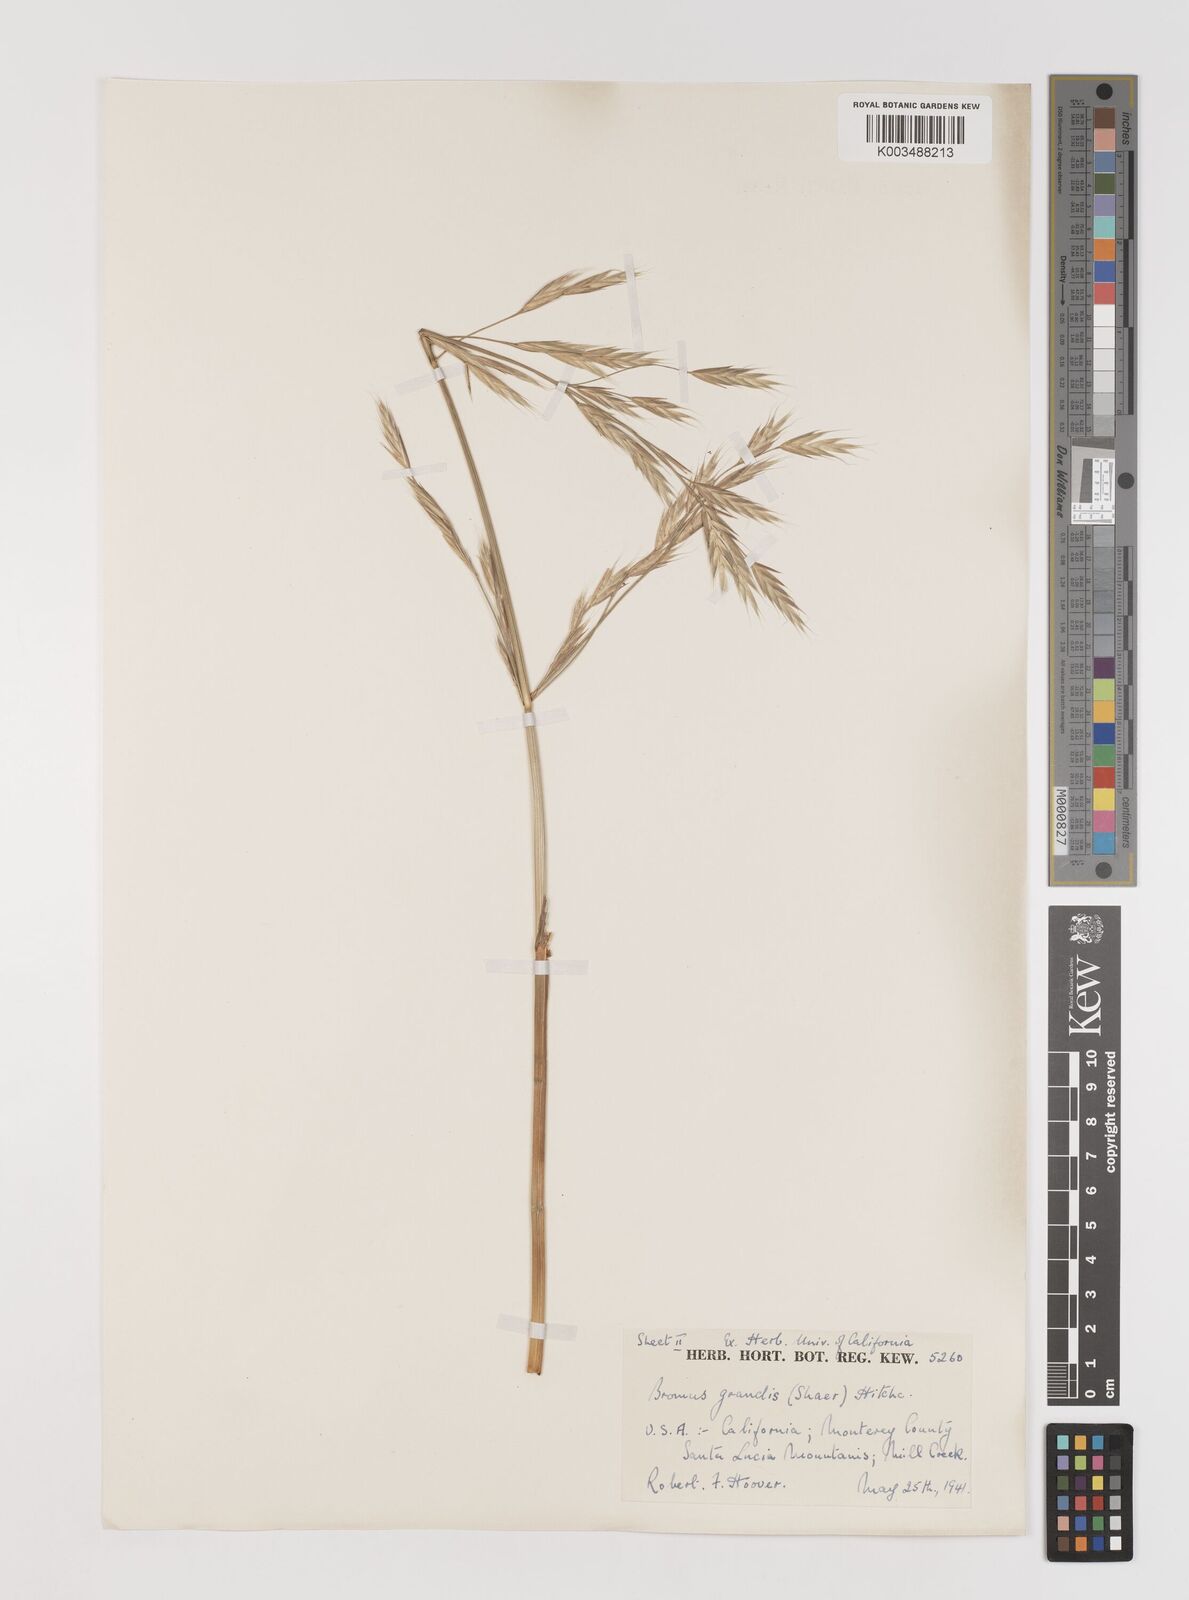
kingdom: Plantae
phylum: Tracheophyta
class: Liliopsida
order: Poales
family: Poaceae
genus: Bromus
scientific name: Bromus grandis
